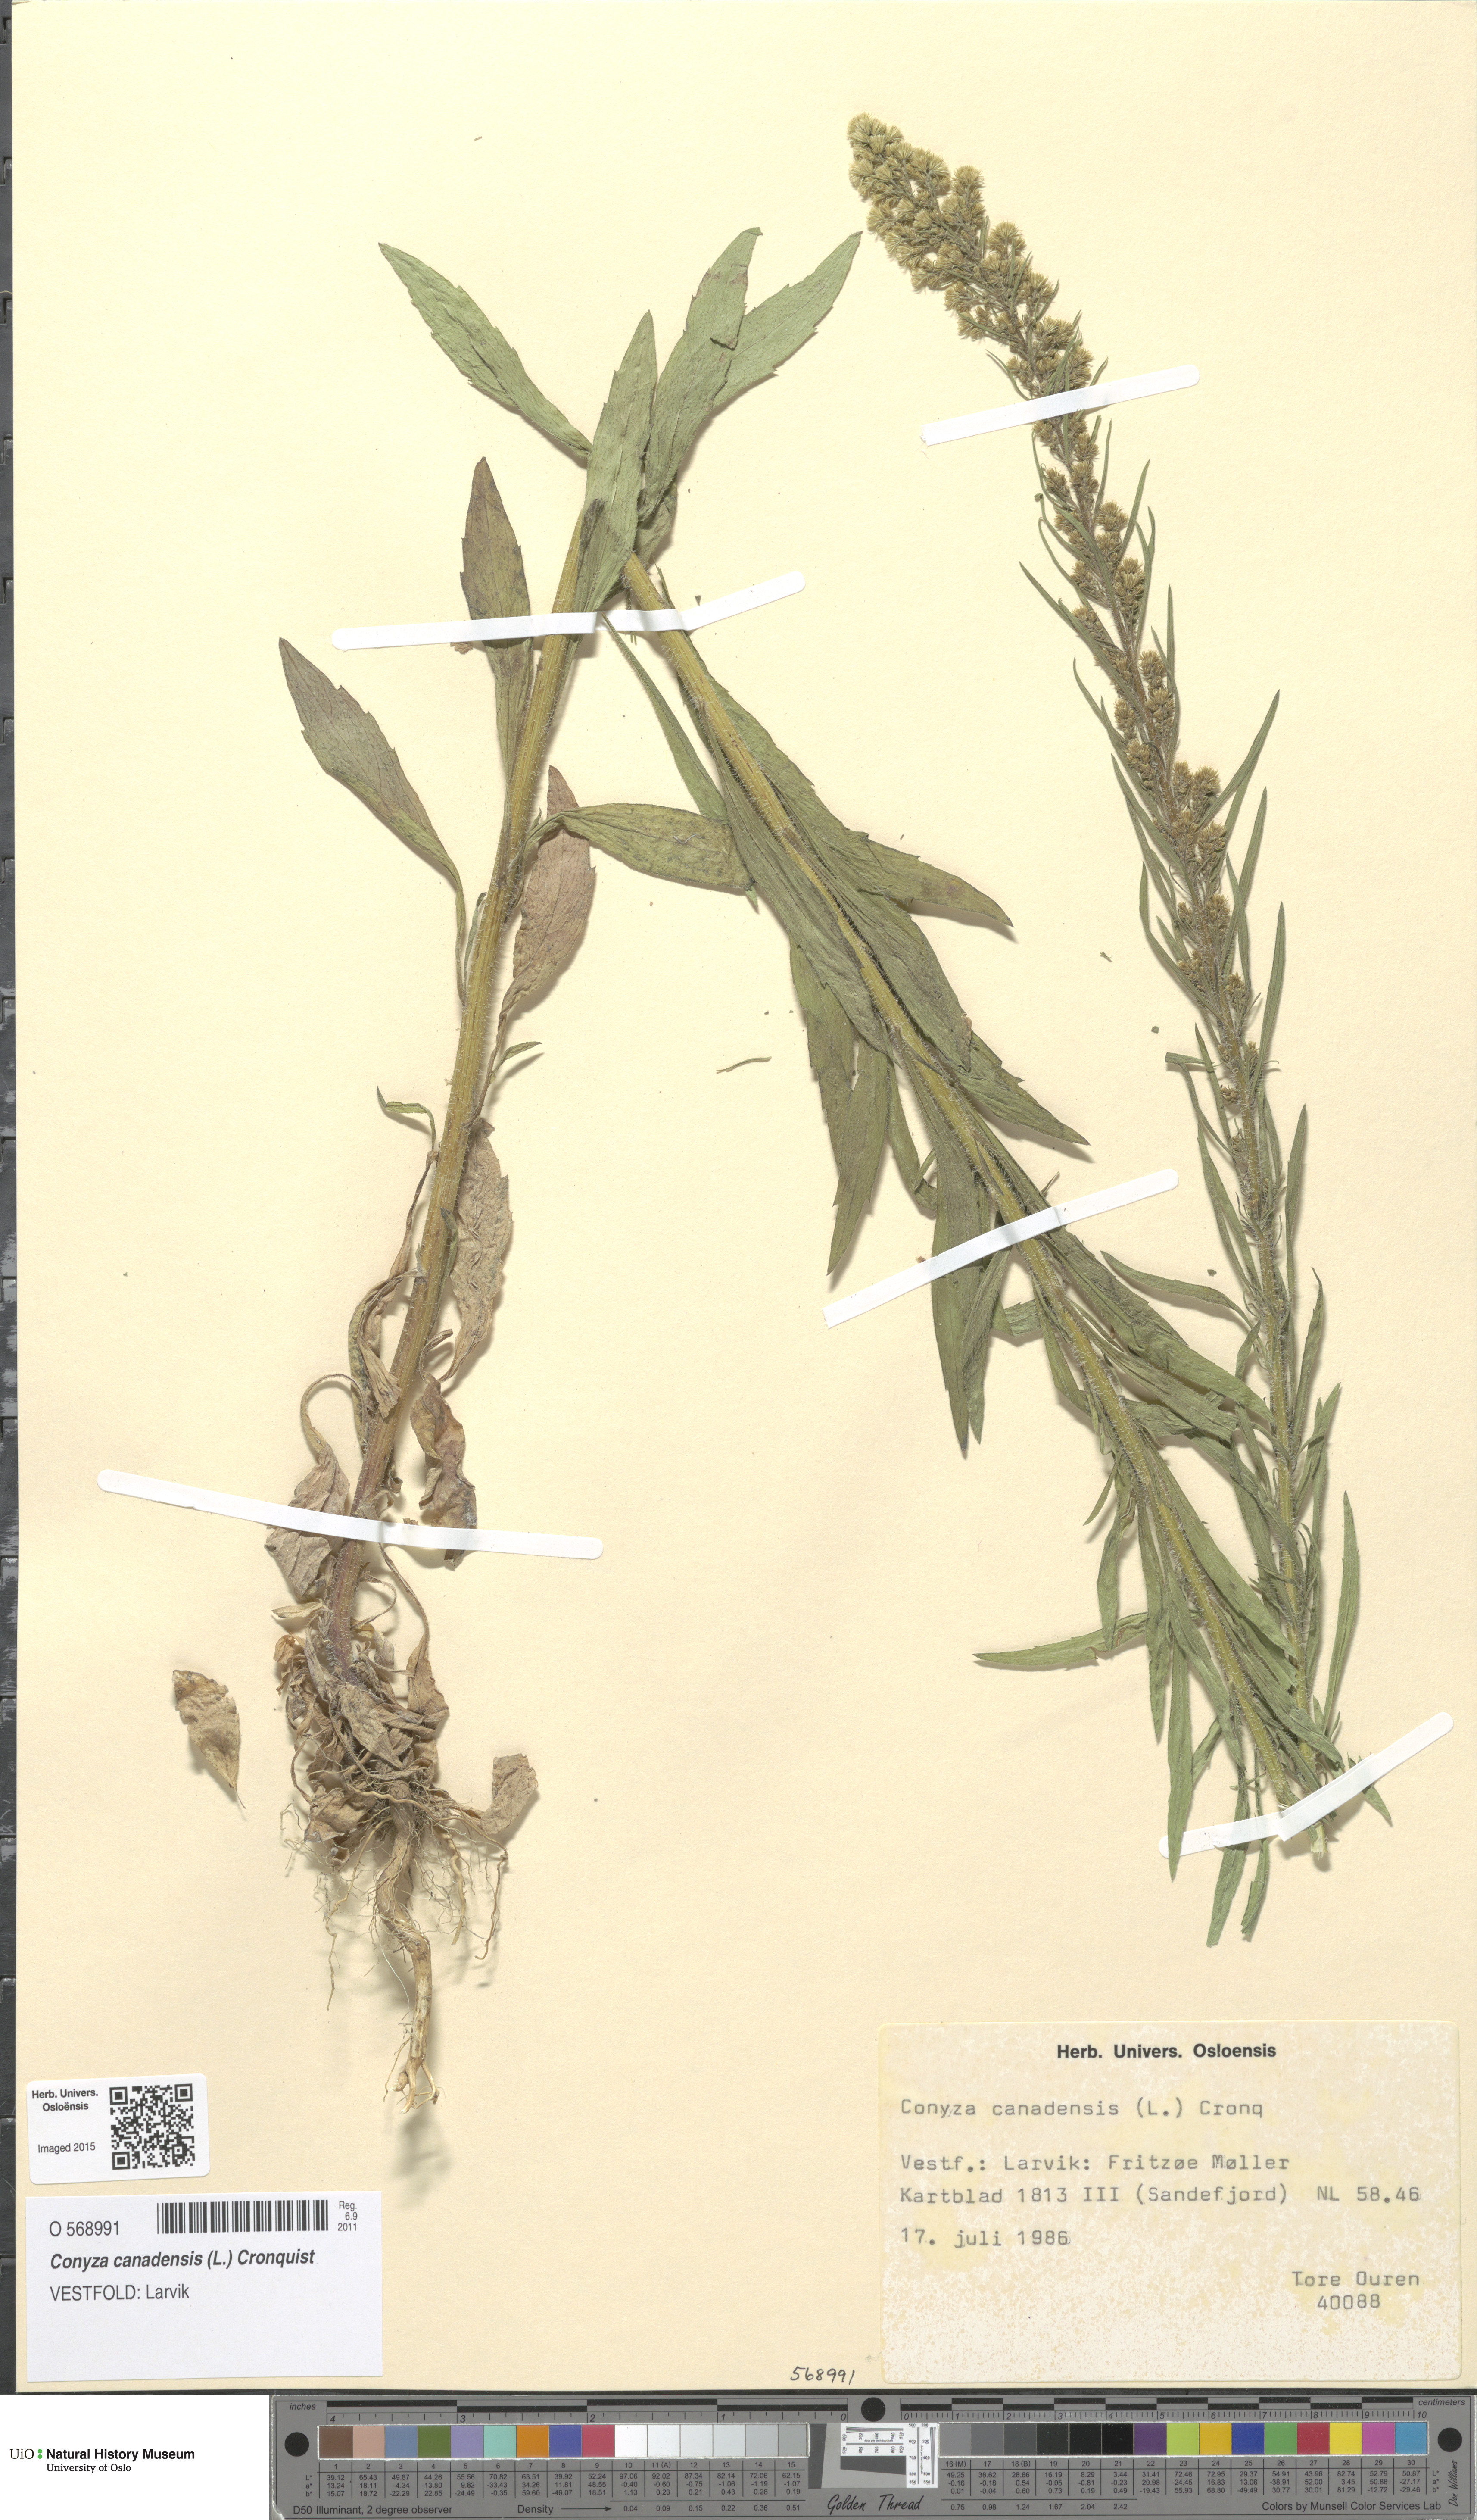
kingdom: Plantae
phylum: Tracheophyta
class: Magnoliopsida
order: Asterales
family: Asteraceae
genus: Erigeron
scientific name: Erigeron canadensis
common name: Canadian fleabane
